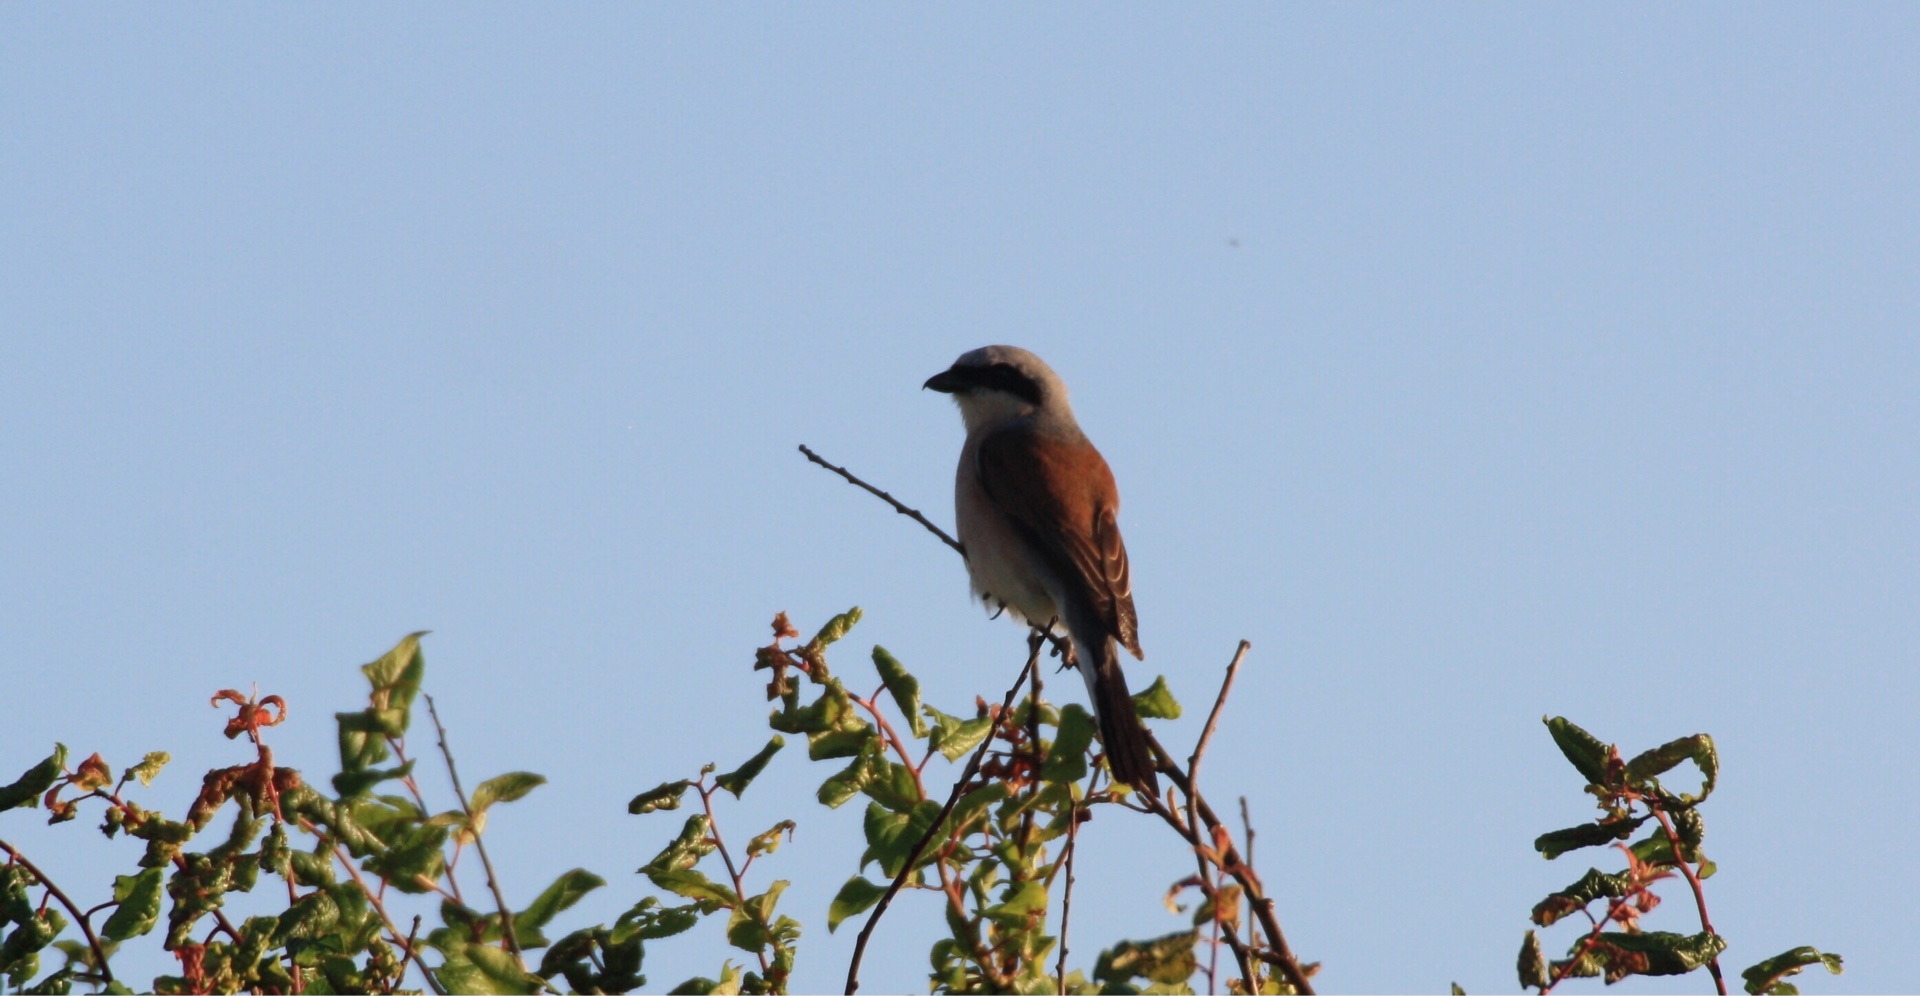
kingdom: Animalia
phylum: Chordata
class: Aves
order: Passeriformes
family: Laniidae
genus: Lanius
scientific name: Lanius collurio
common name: Rødrygget tornskade
